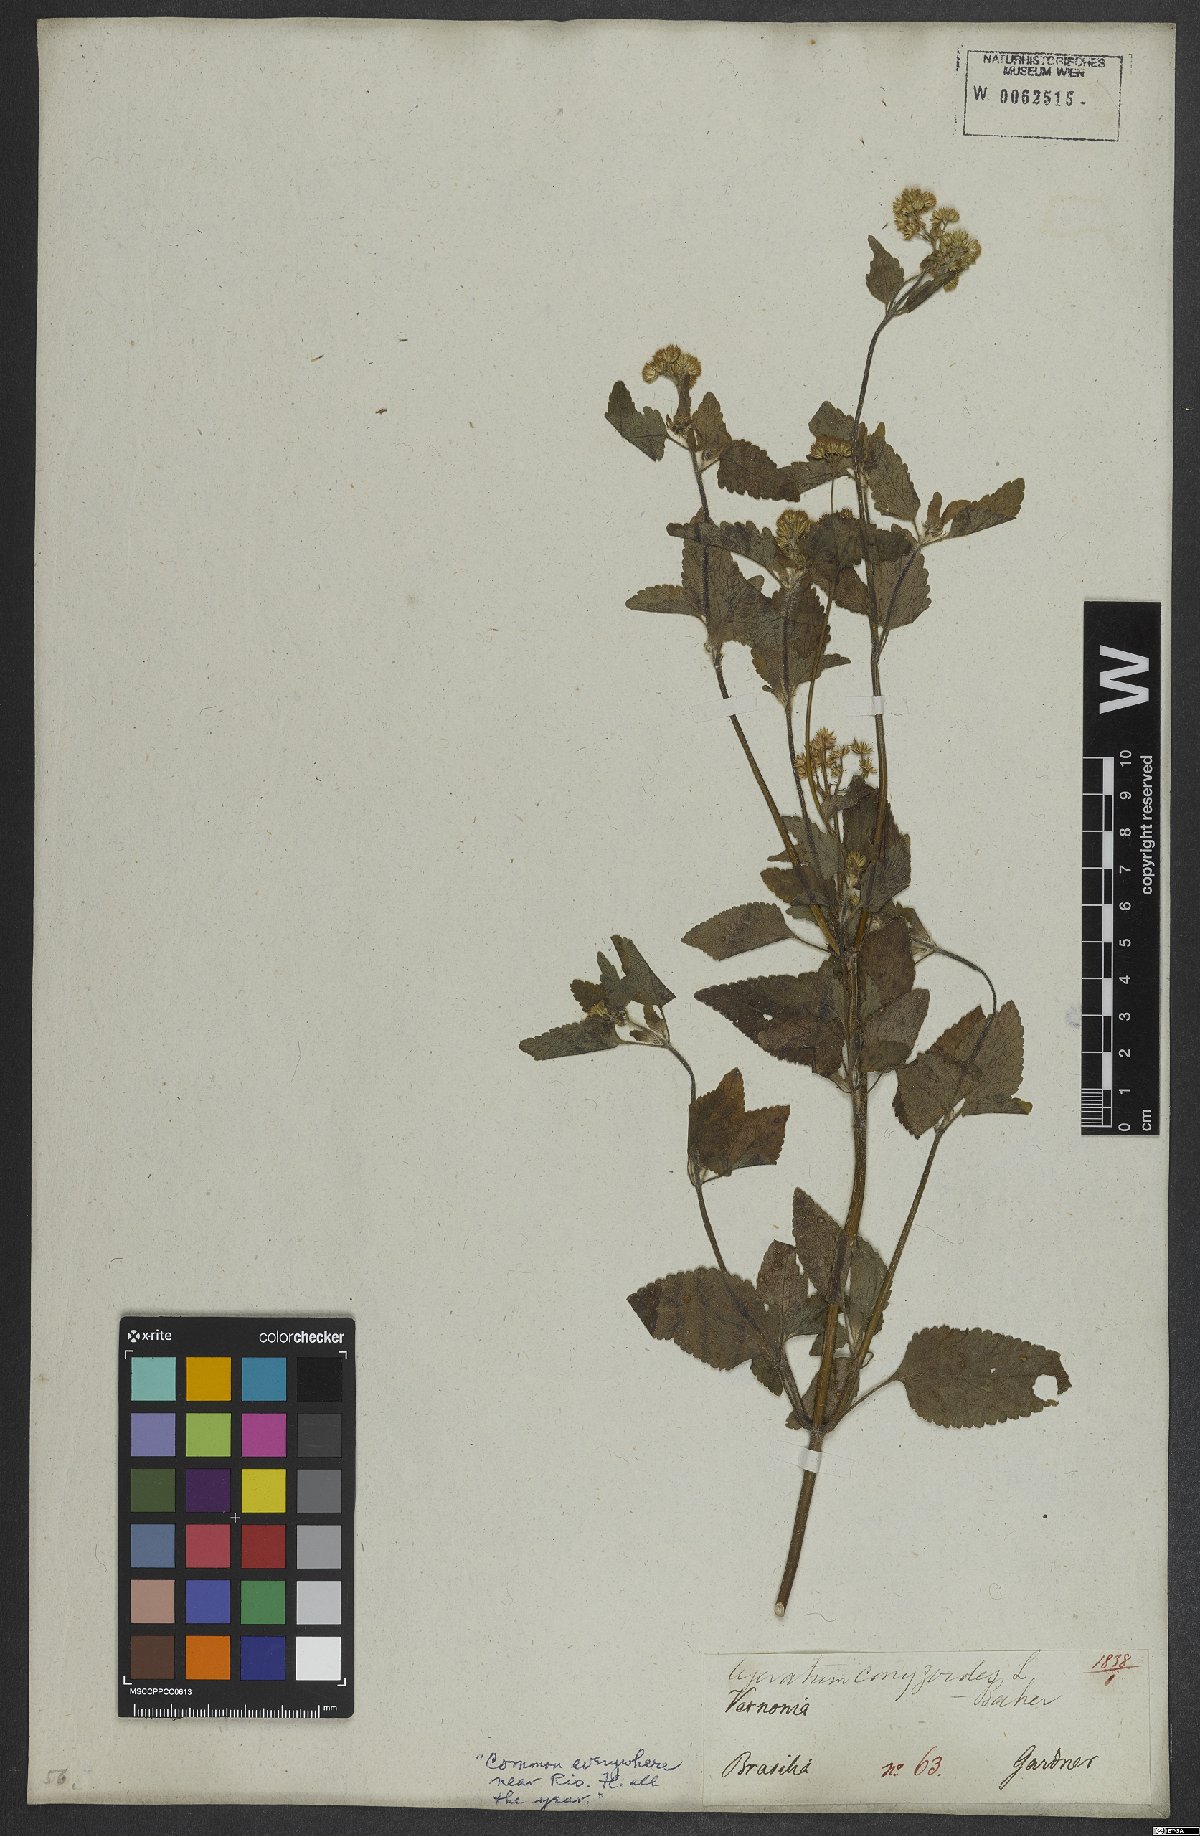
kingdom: Plantae
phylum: Tracheophyta
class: Magnoliopsida
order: Asterales
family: Asteraceae
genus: Ageratum
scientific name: Ageratum conyzoides
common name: Tropical whiteweed
